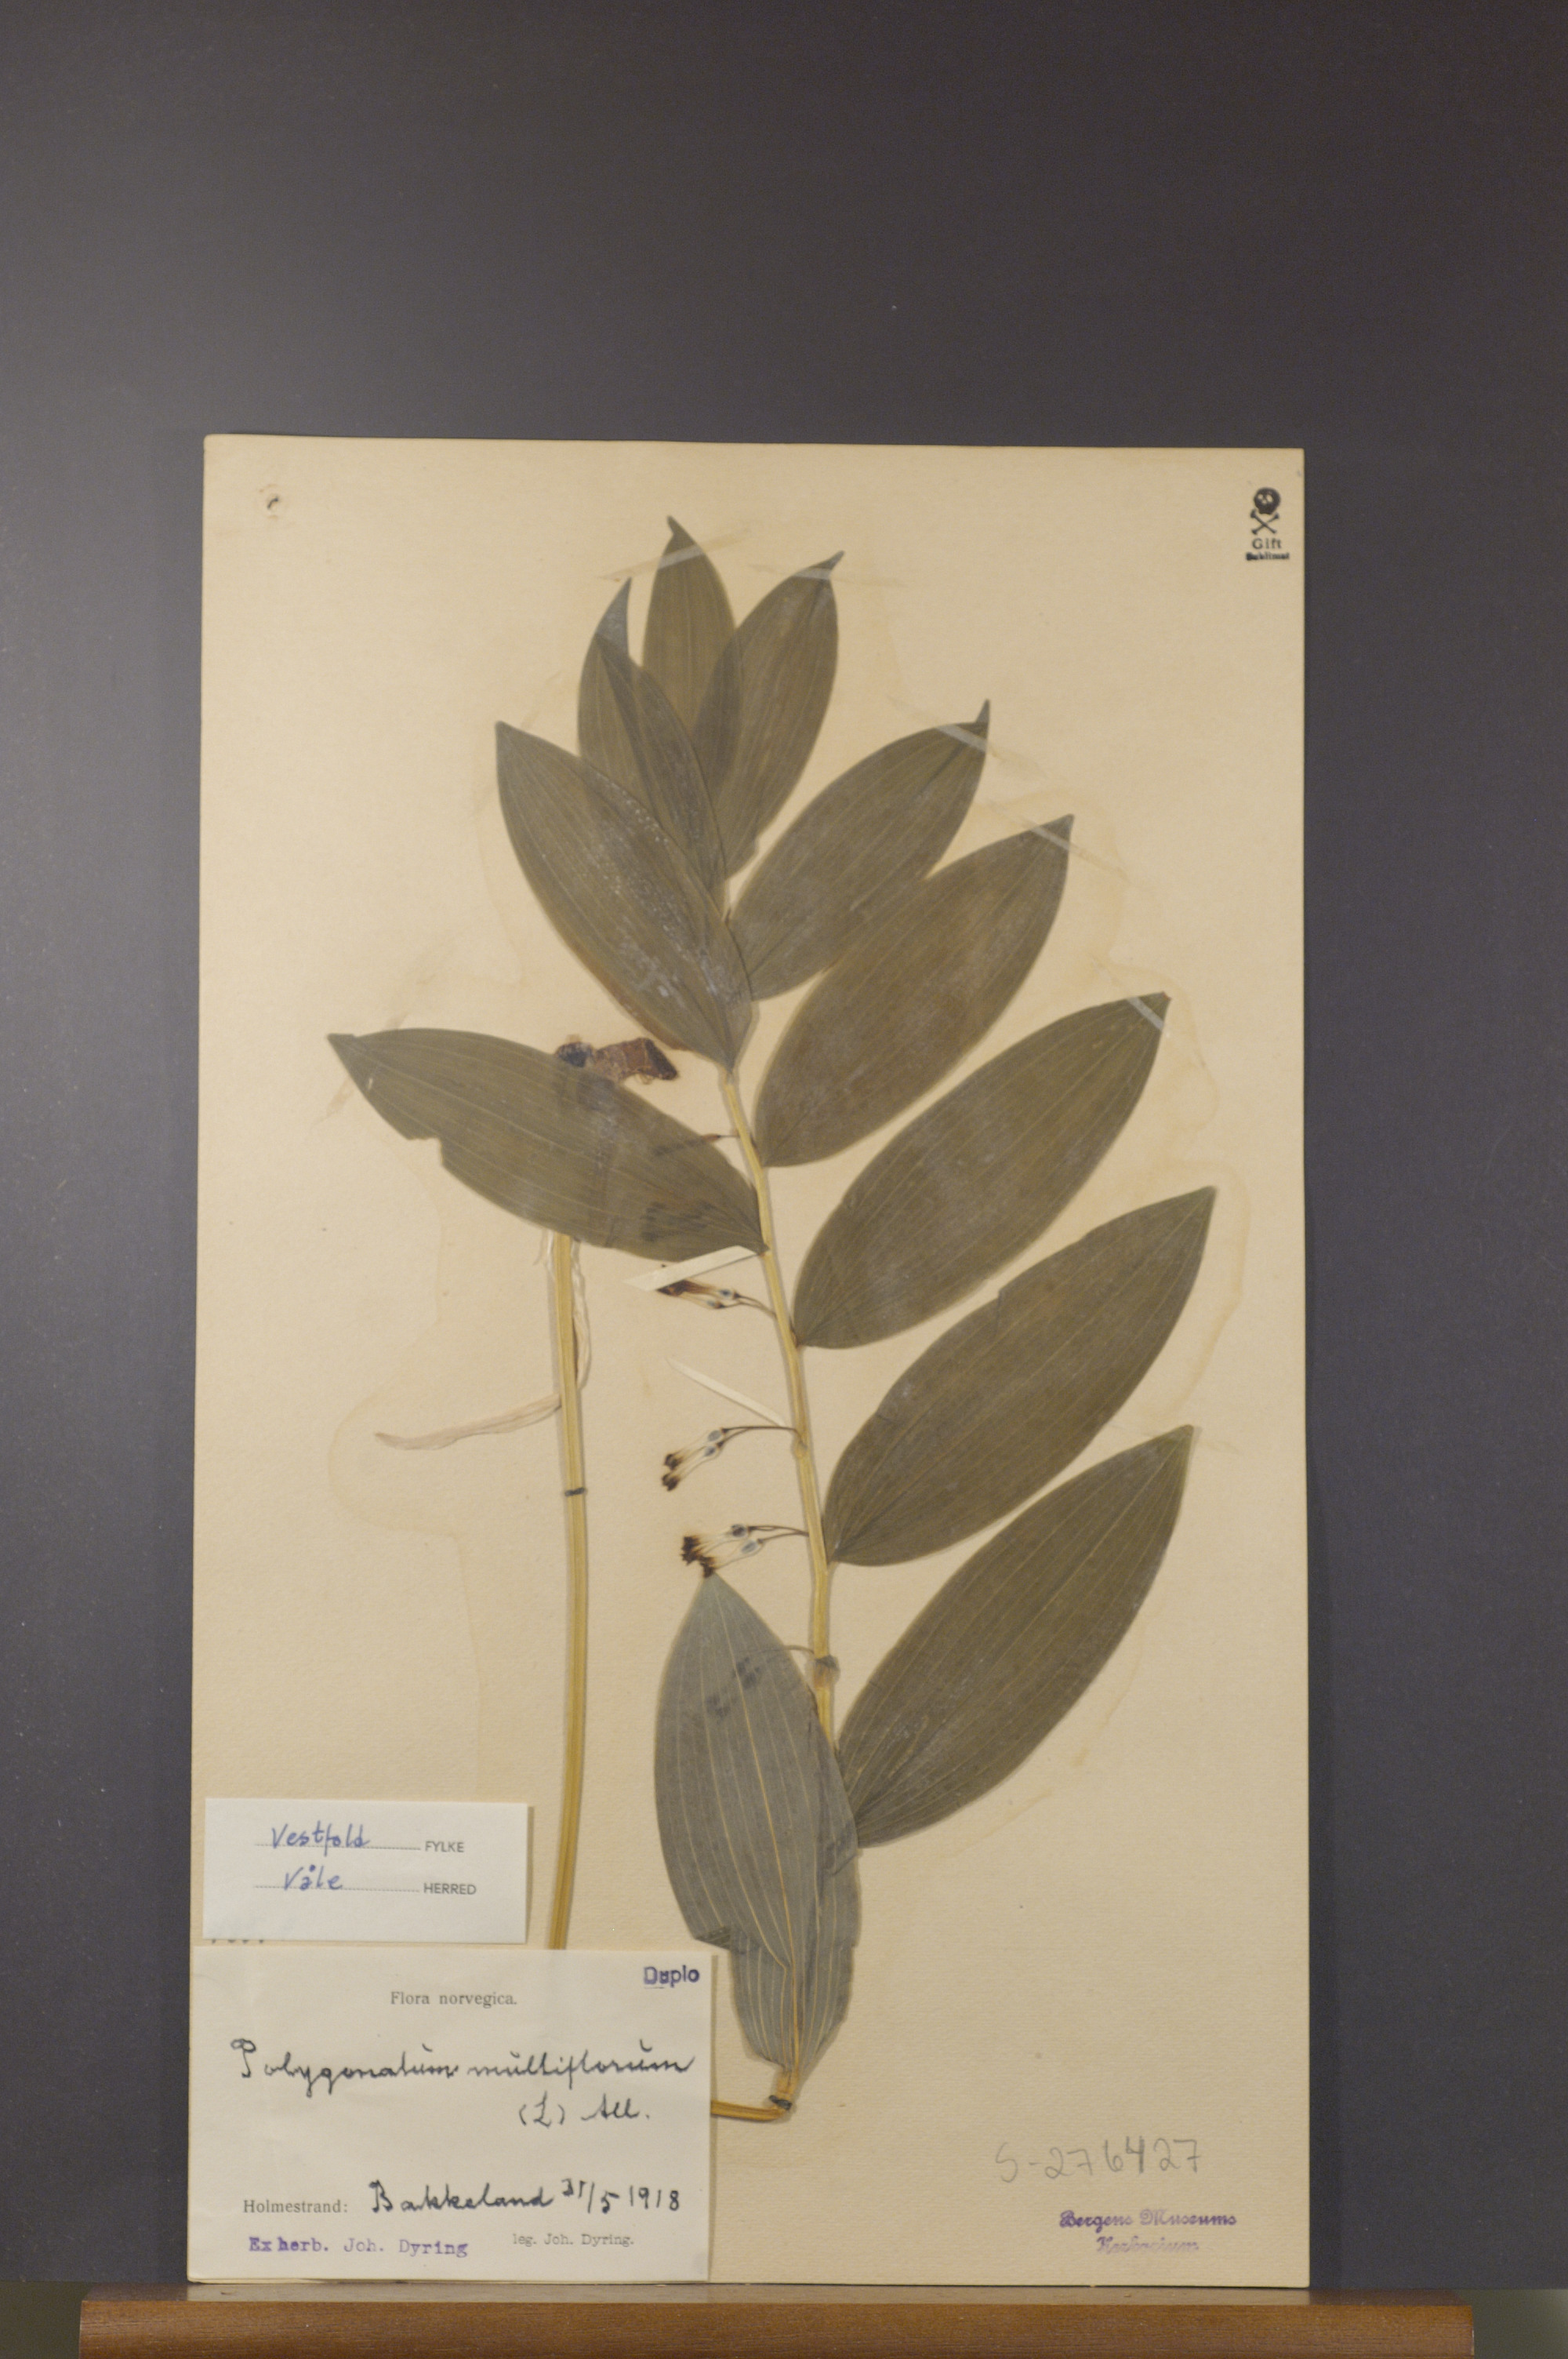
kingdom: Plantae
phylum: Tracheophyta
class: Liliopsida
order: Asparagales
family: Asparagaceae
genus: Polygonatum
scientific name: Polygonatum multiflorum
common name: Solomon's-seal
